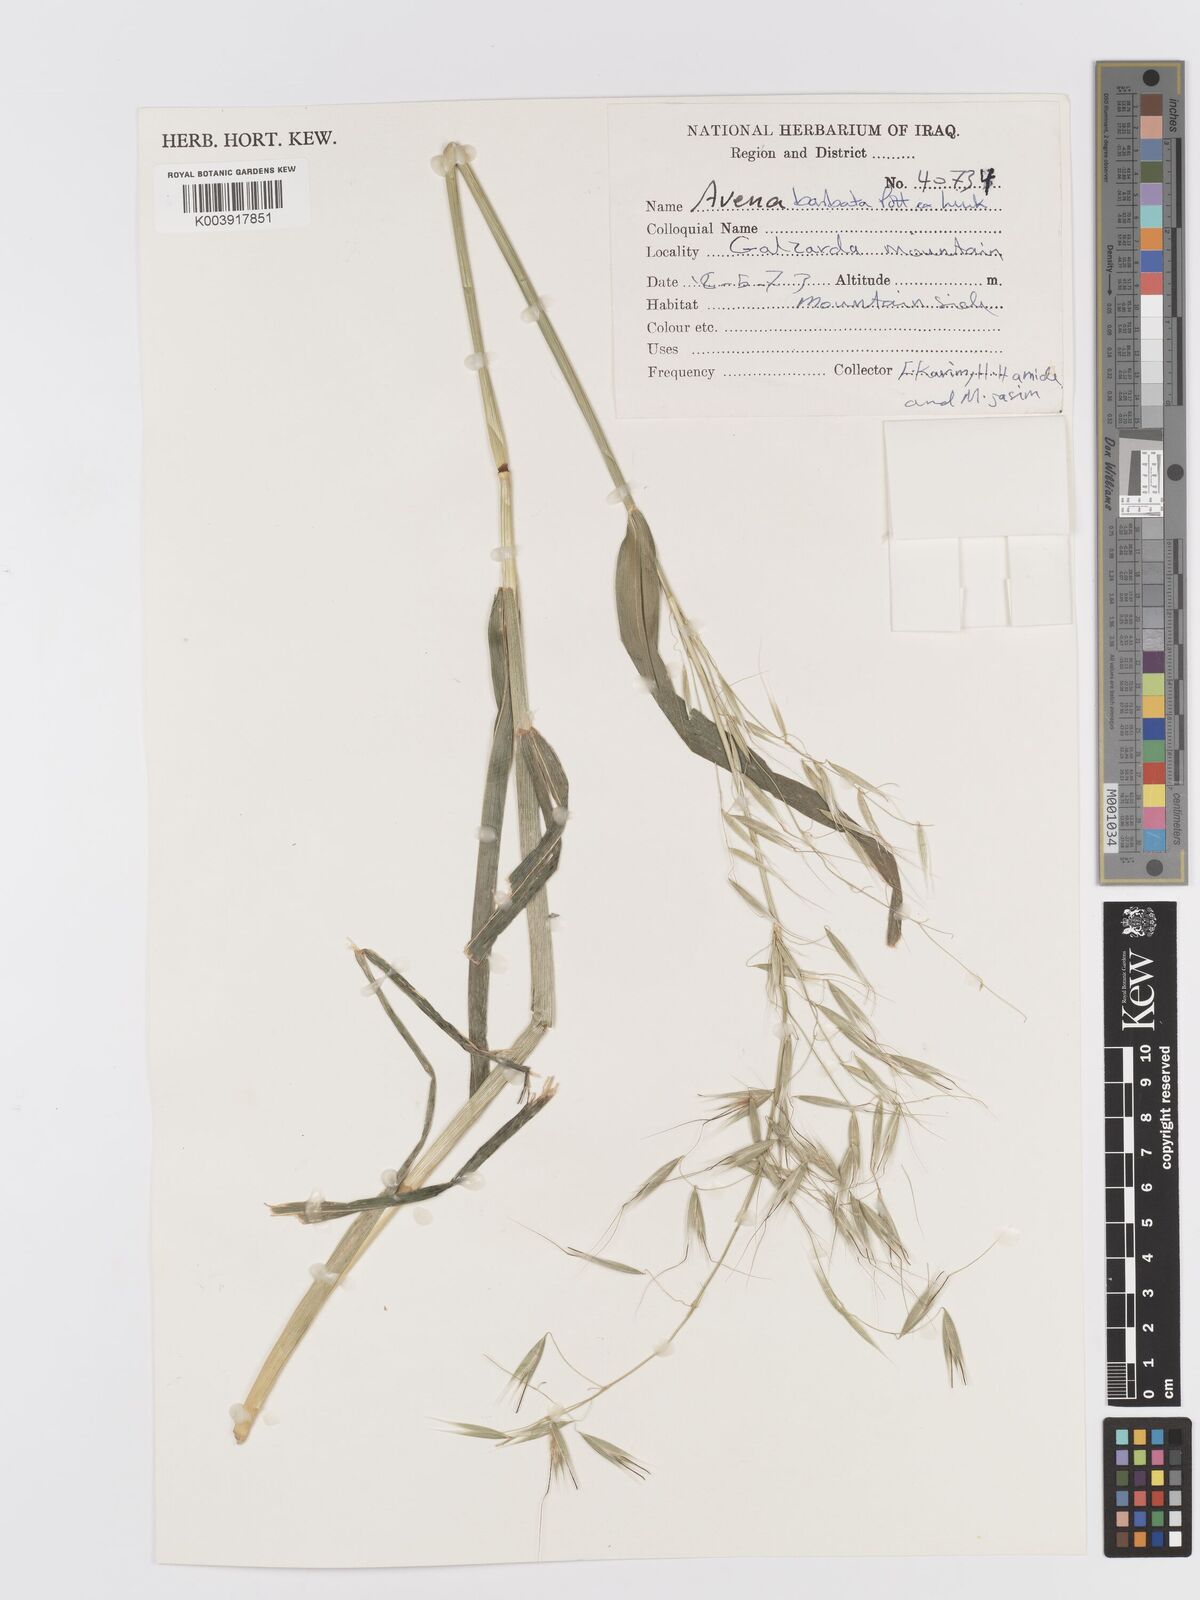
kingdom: Plantae
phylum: Tracheophyta
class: Liliopsida
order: Poales
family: Poaceae
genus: Avena
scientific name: Avena
